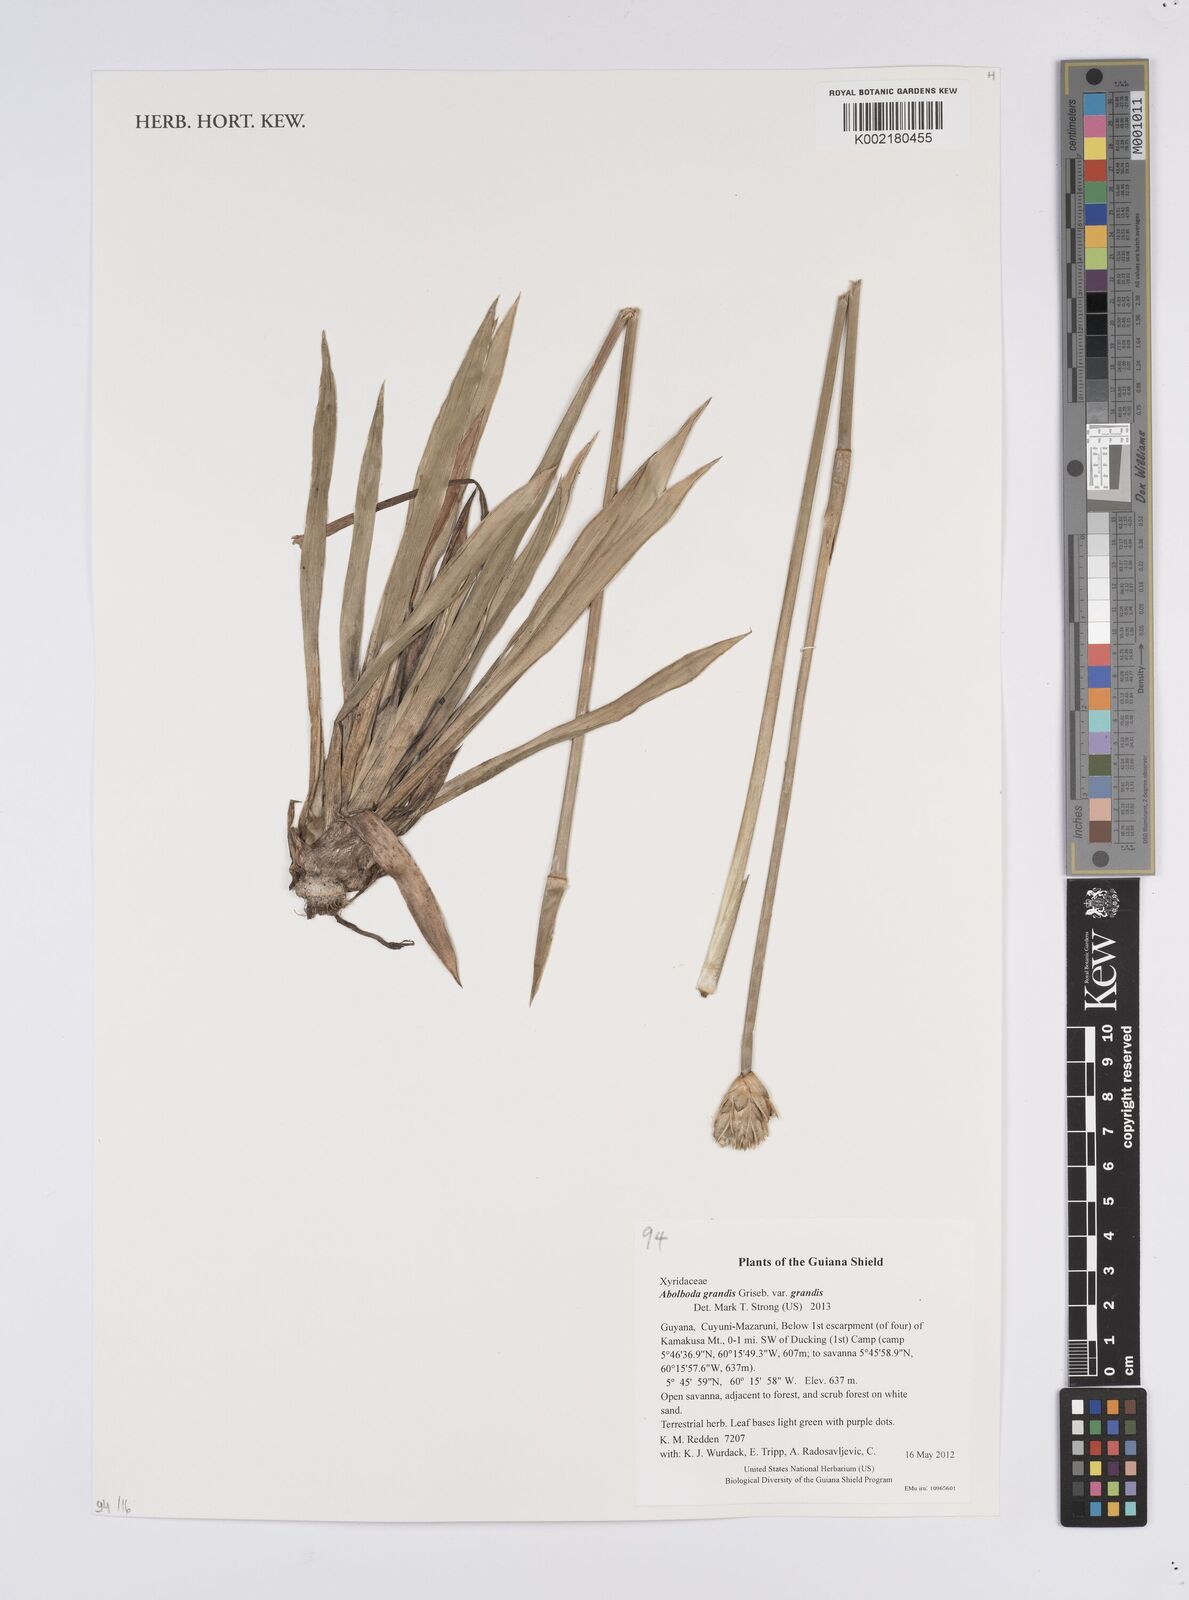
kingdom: Plantae
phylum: Tracheophyta
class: Liliopsida
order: Poales
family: Xyridaceae
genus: Abolboda
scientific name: Abolboda grandis
